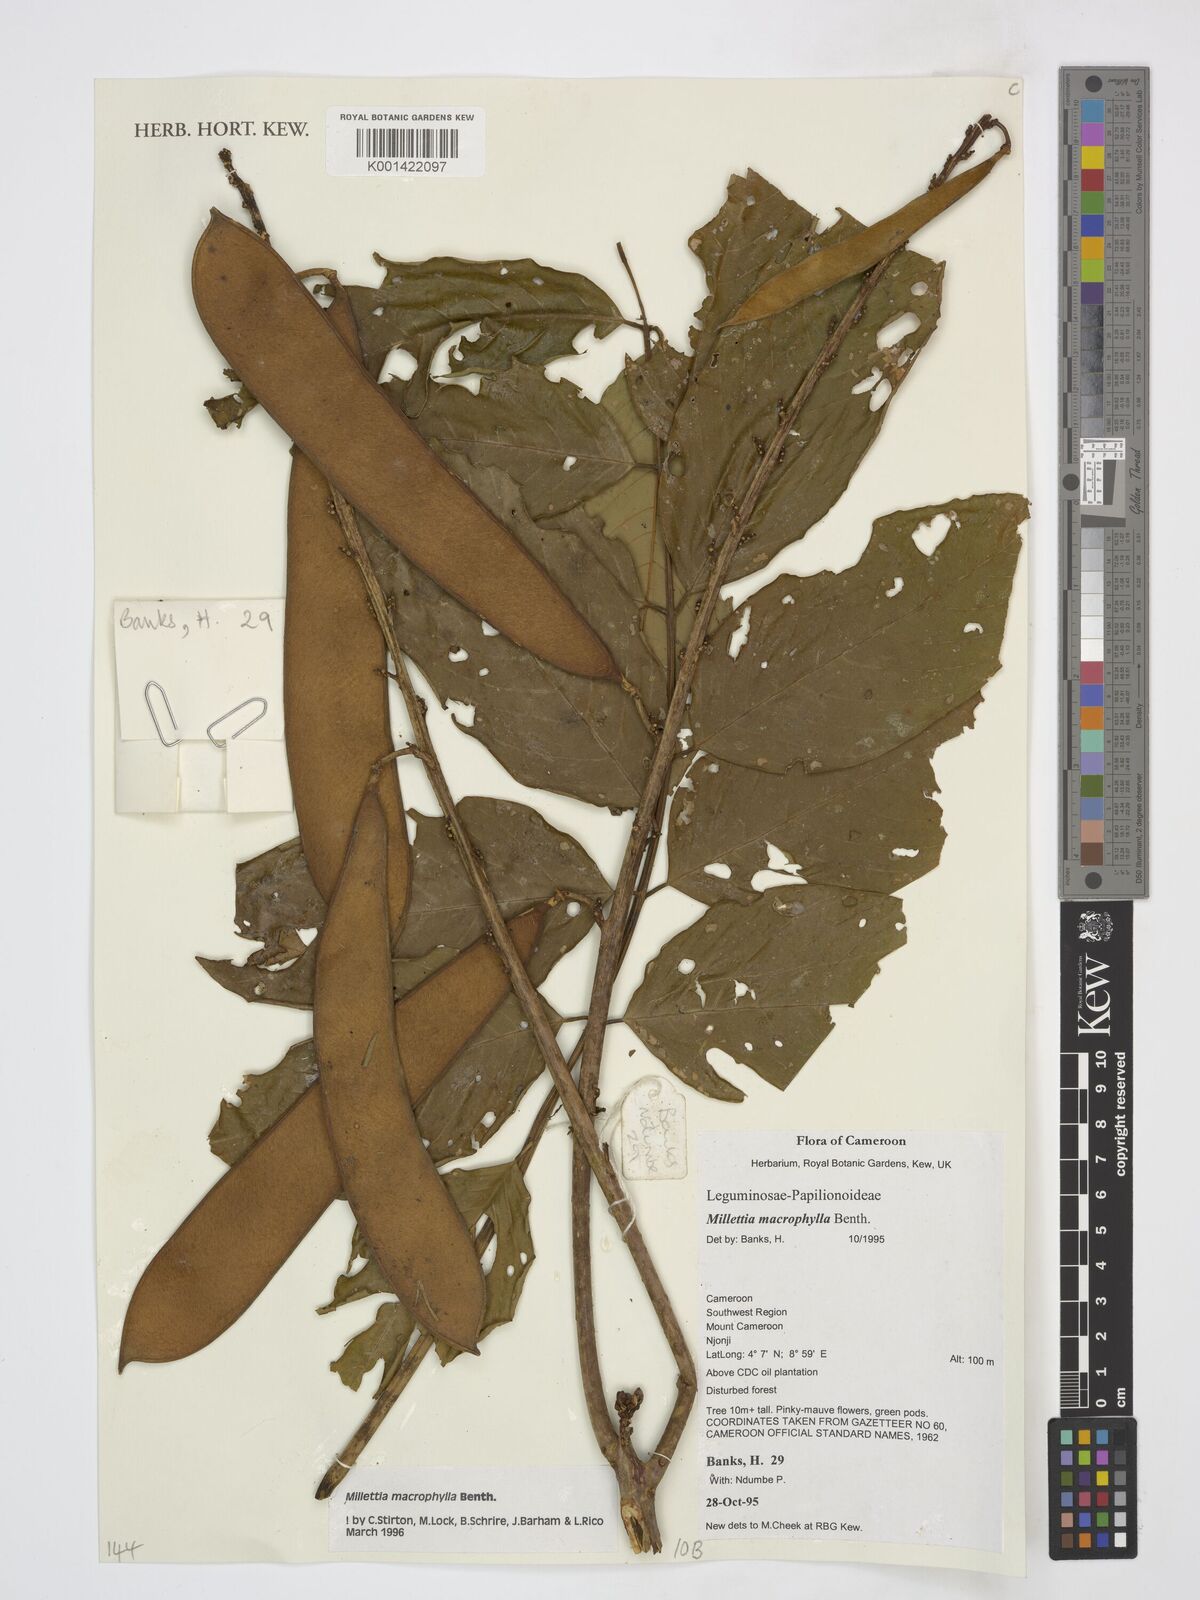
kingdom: Plantae
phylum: Tracheophyta
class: Magnoliopsida
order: Fabales
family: Fabaceae
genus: Millettia
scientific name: Millettia macrophylla
